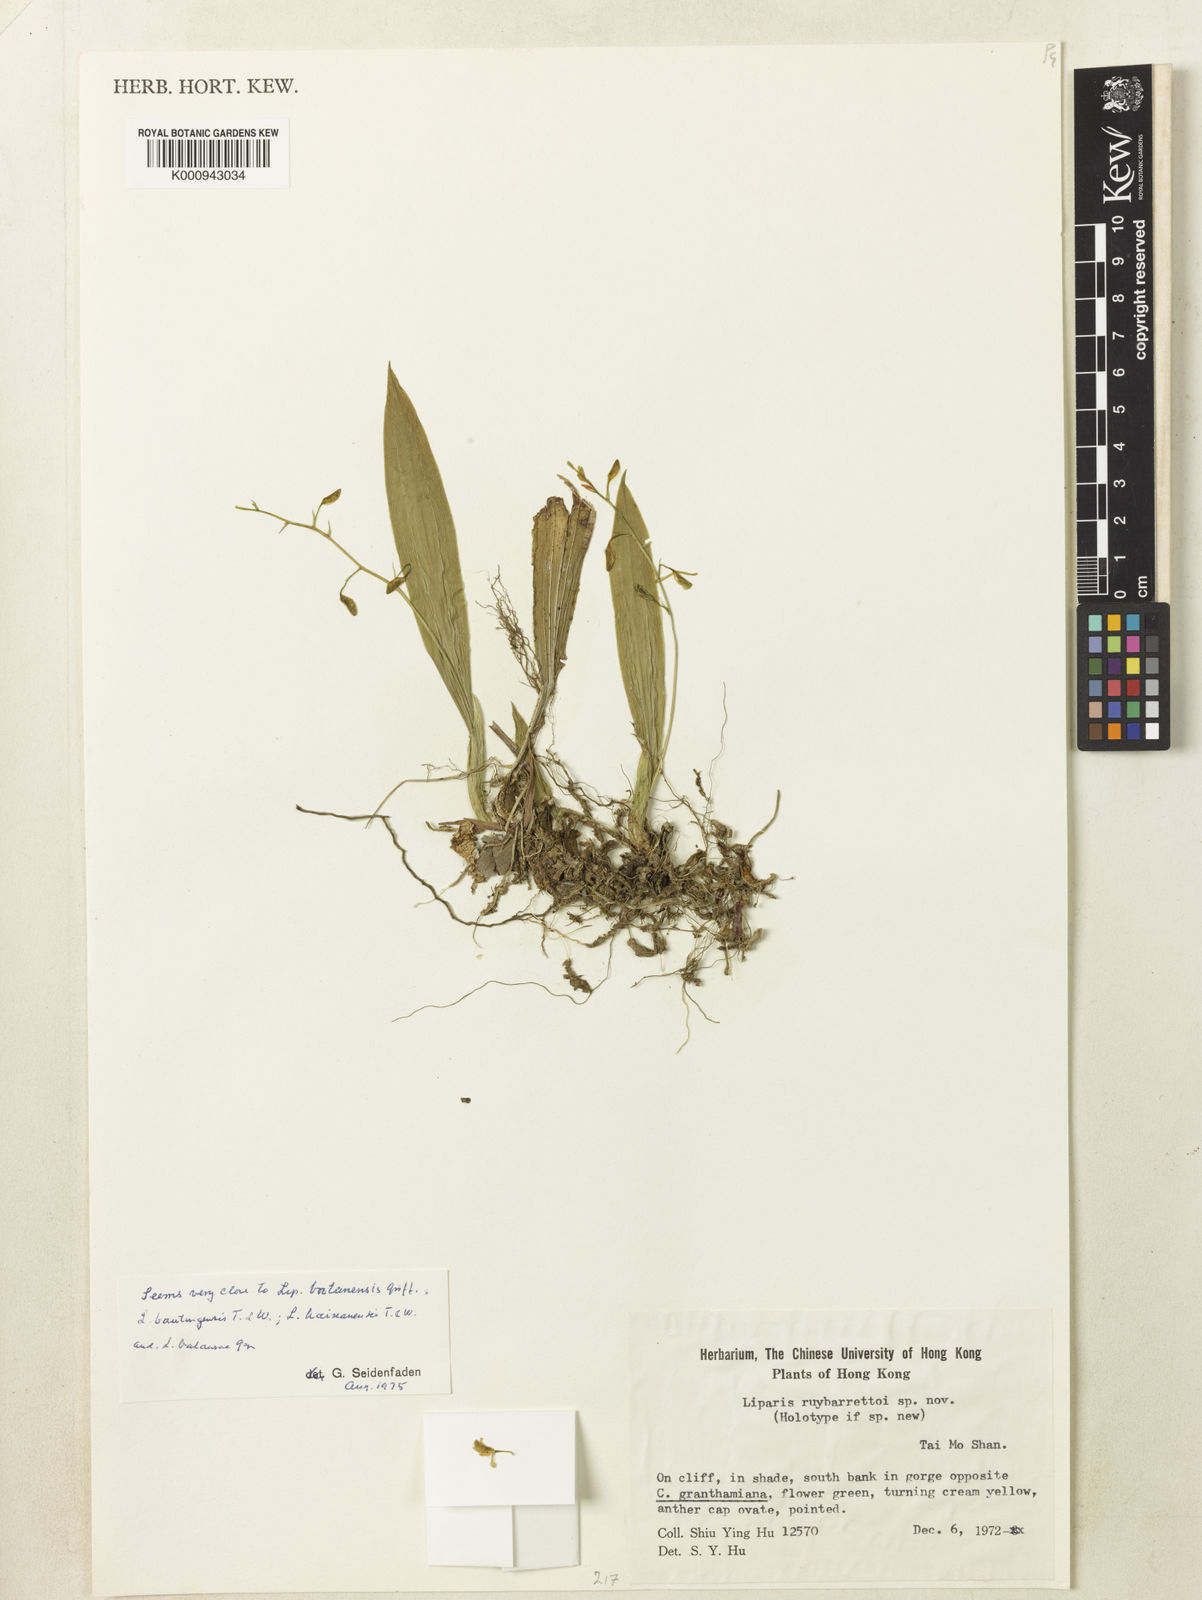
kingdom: Plantae
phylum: Tracheophyta
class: Liliopsida
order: Asparagales
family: Orchidaceae
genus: Liparis
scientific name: Liparis bootanensis
